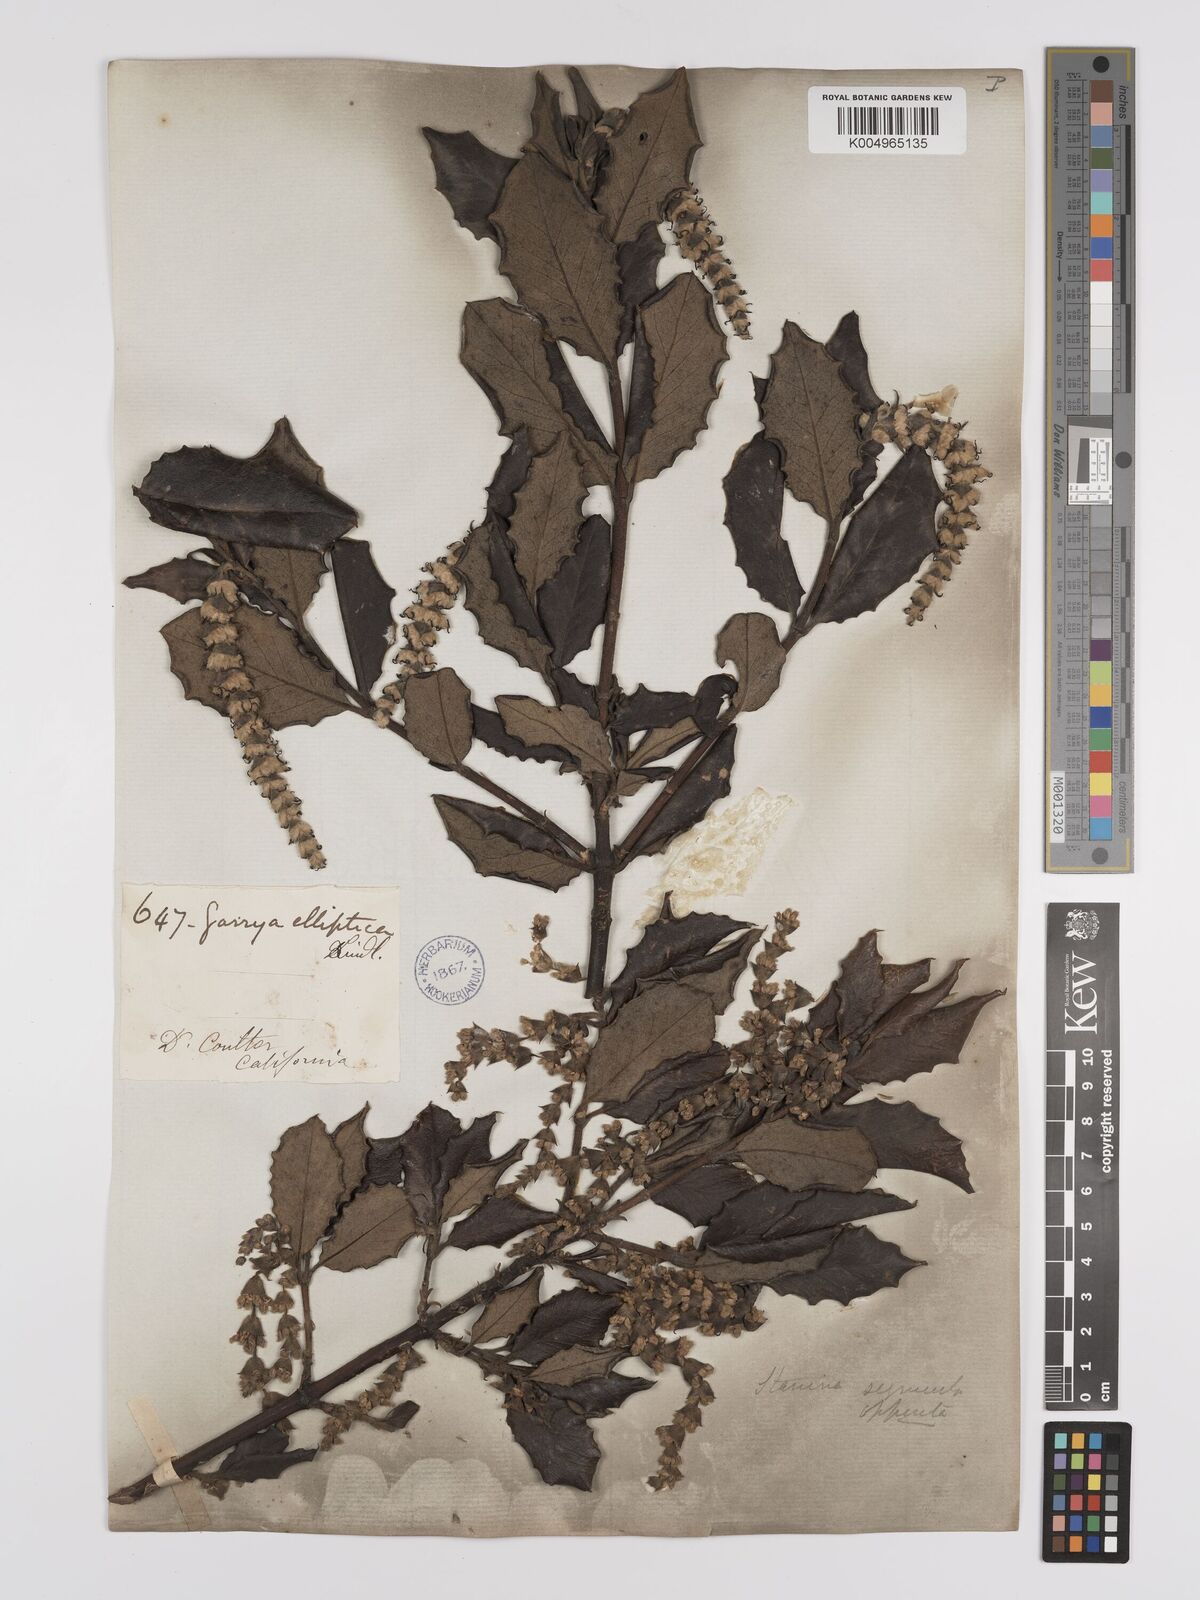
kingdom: Plantae
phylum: Tracheophyta
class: Magnoliopsida
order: Garryales
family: Garryaceae
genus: Garrya
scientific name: Garrya elliptica
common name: Silk-tassel
